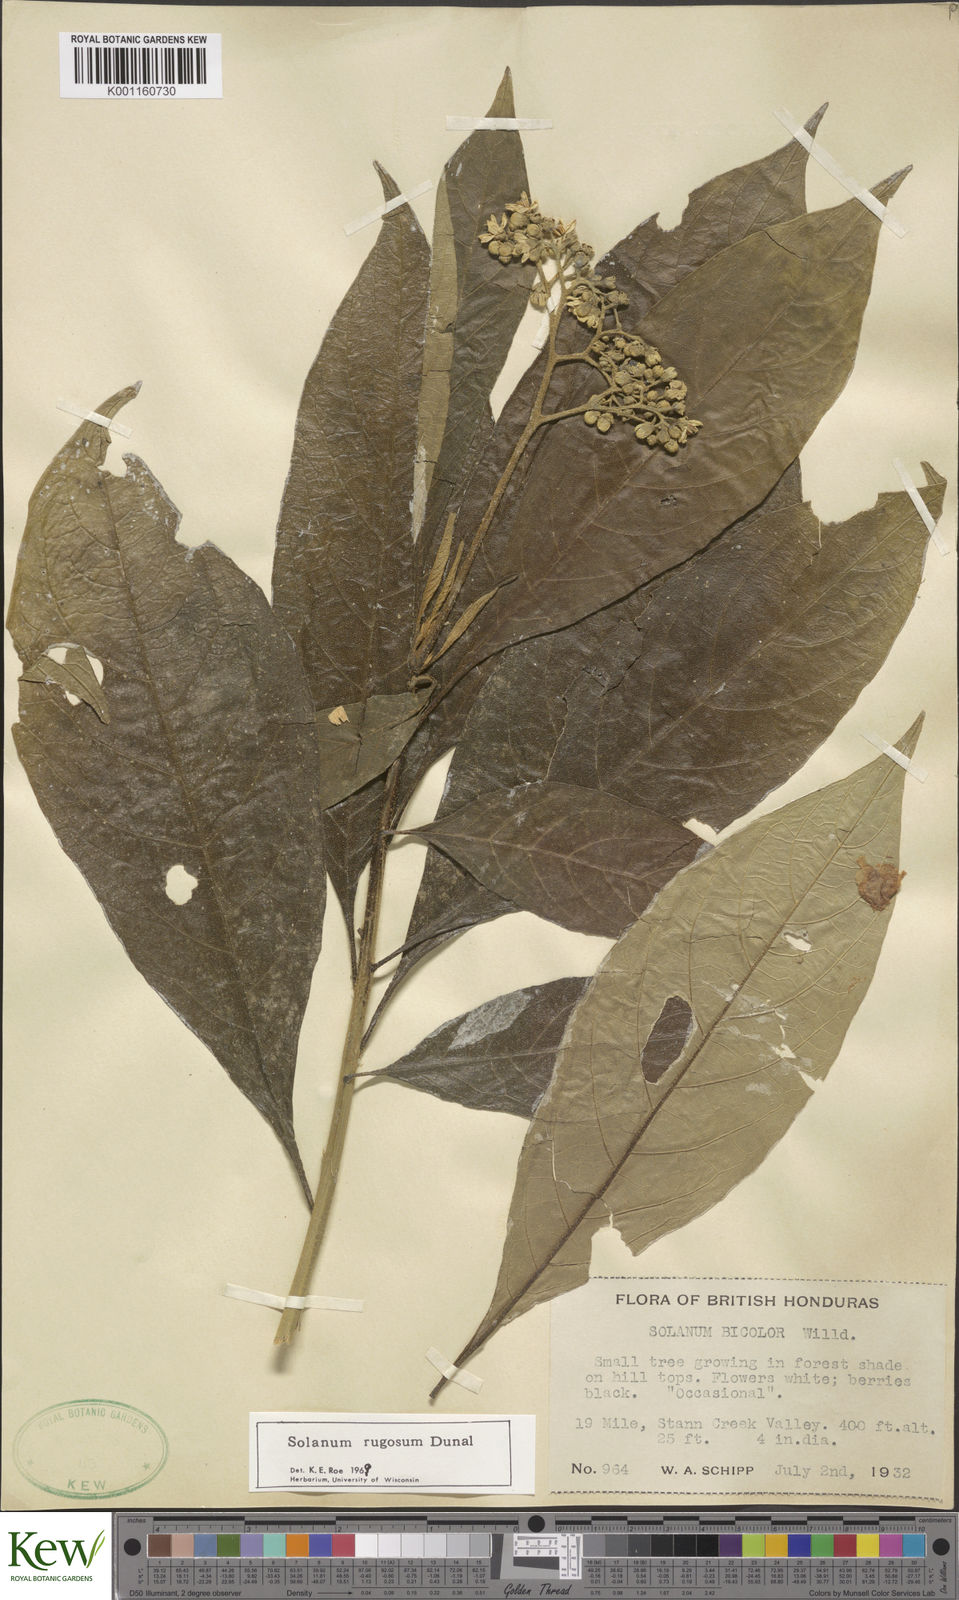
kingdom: Plantae
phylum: Tracheophyta
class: Magnoliopsida
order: Solanales
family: Solanaceae
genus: Solanum
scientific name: Solanum rugosum
